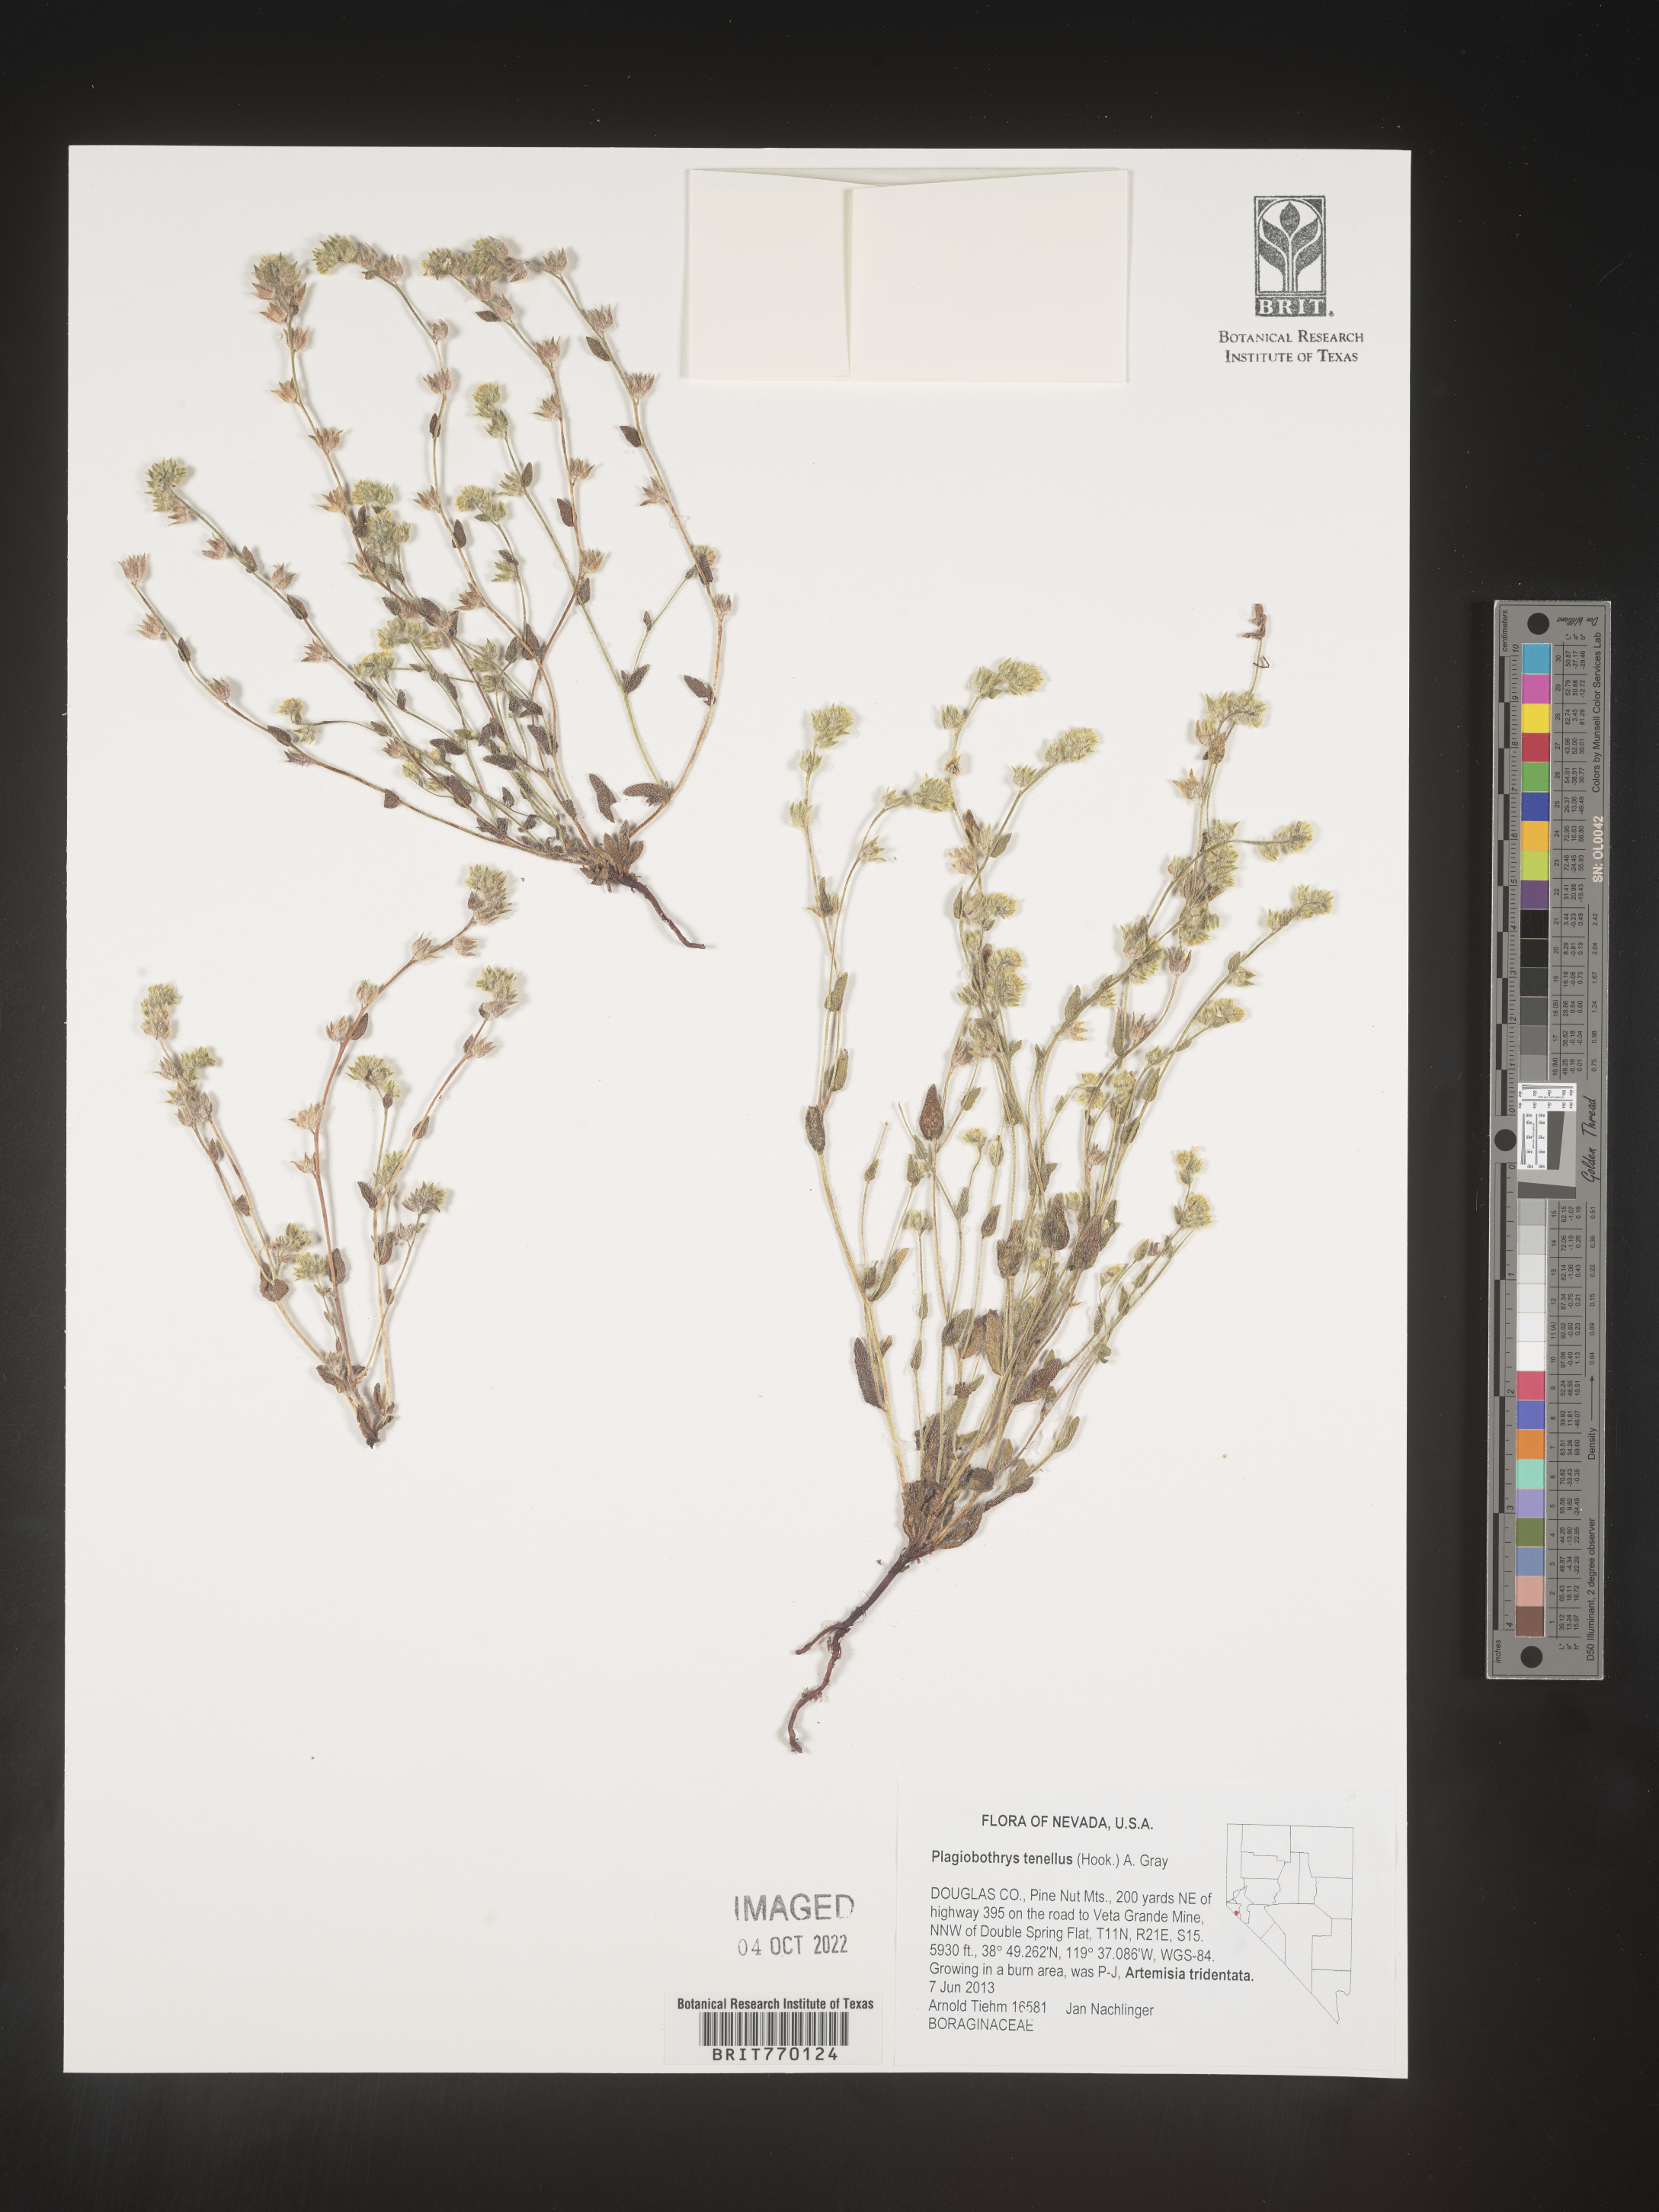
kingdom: Plantae
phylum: Tracheophyta
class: Magnoliopsida
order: Boraginales
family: Boraginaceae
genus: Plagiobothrys
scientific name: Plagiobothrys
